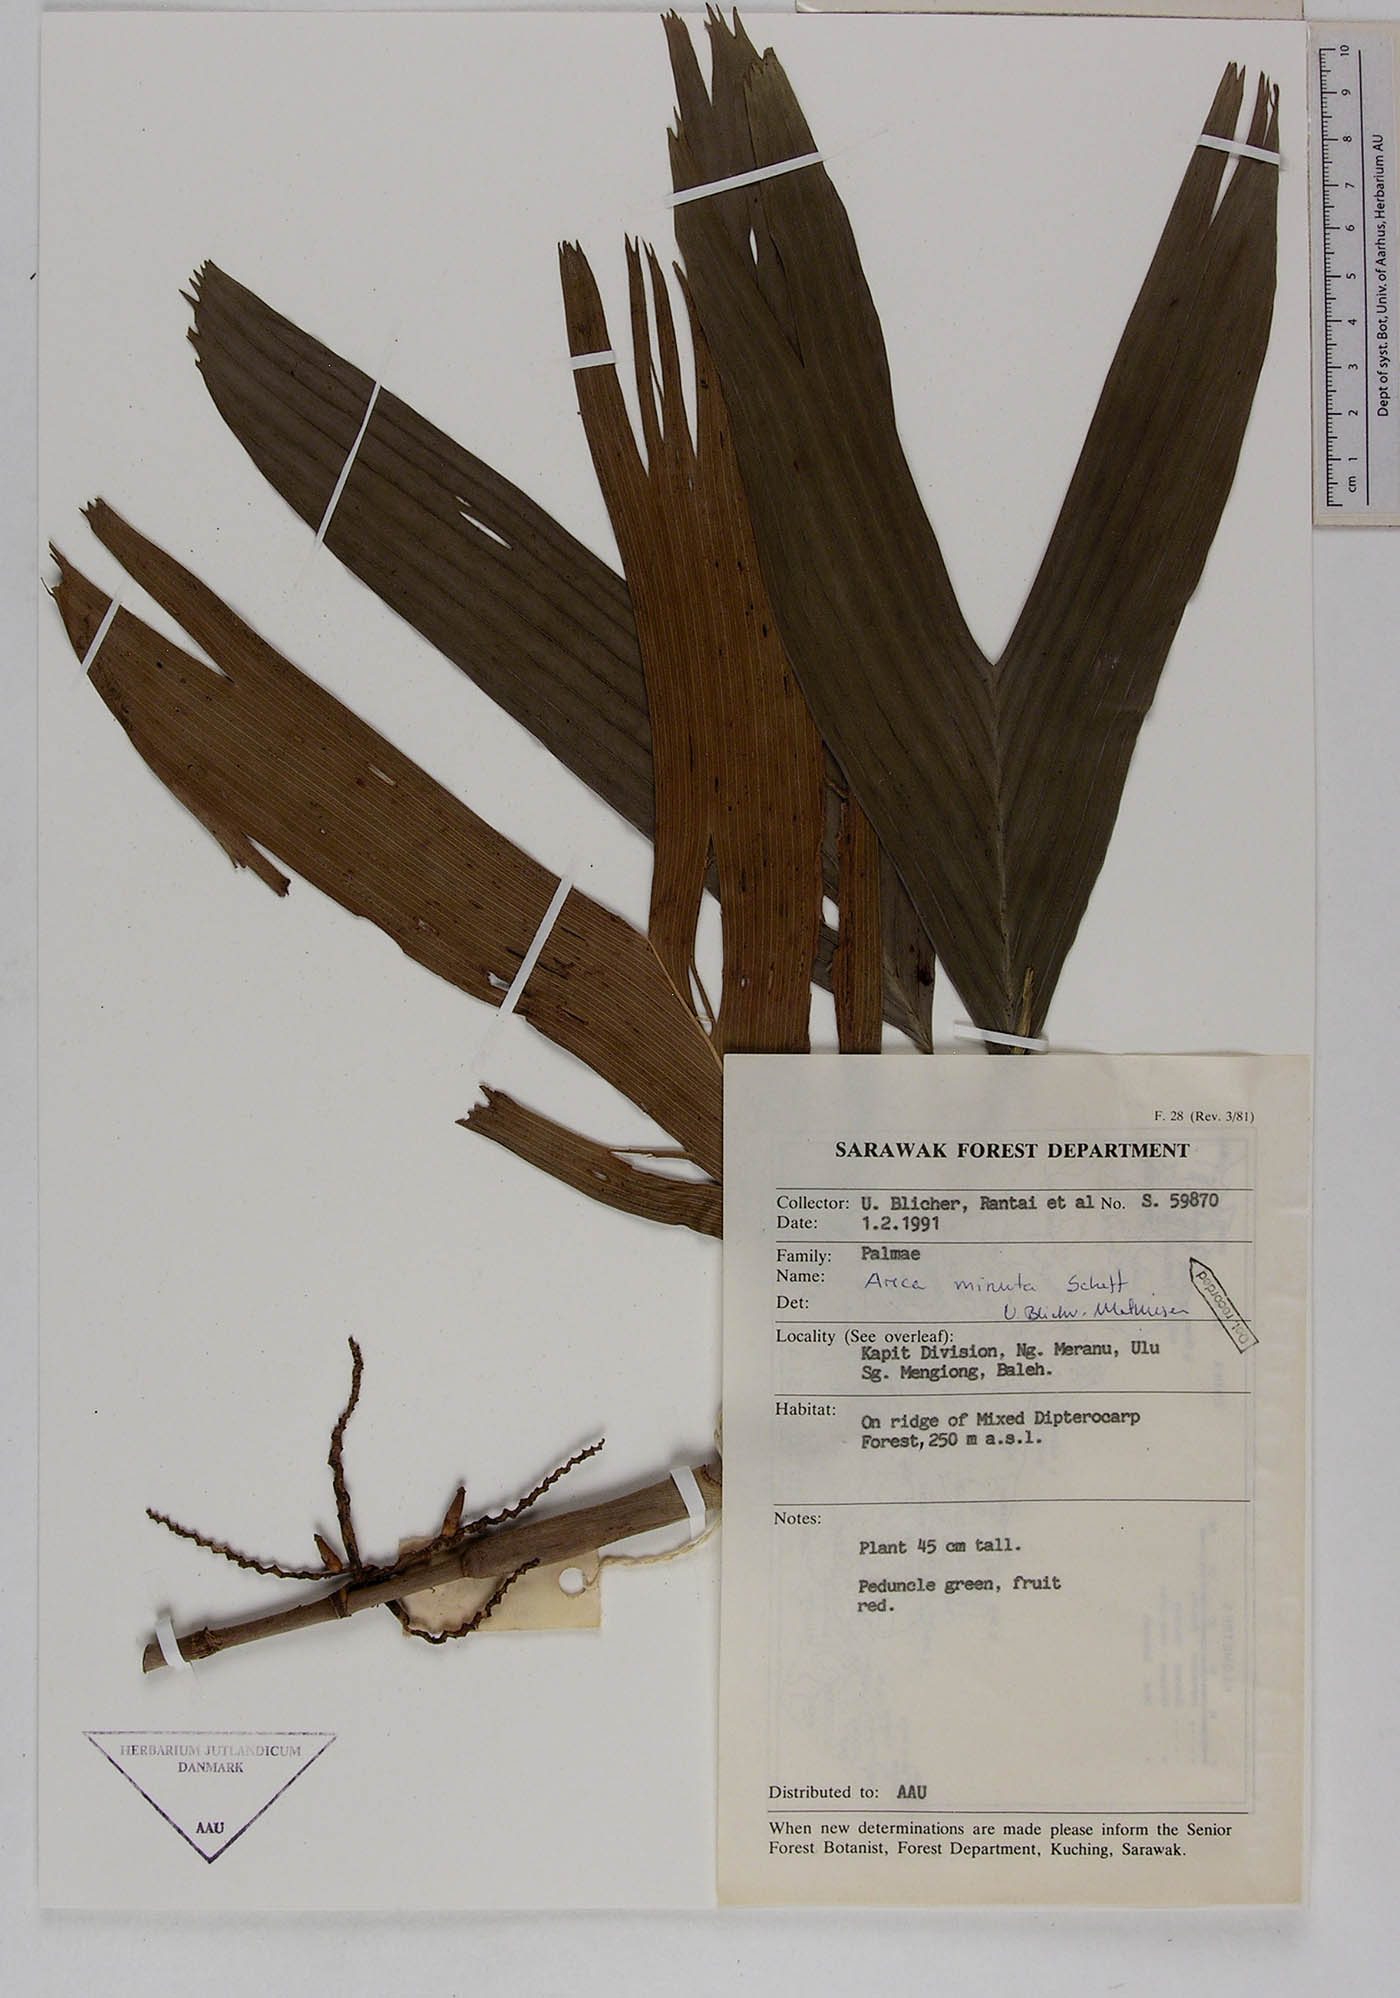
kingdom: Plantae
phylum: Tracheophyta
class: Liliopsida
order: Arecales
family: Arecaceae
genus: Areca
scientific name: Areca minuta
